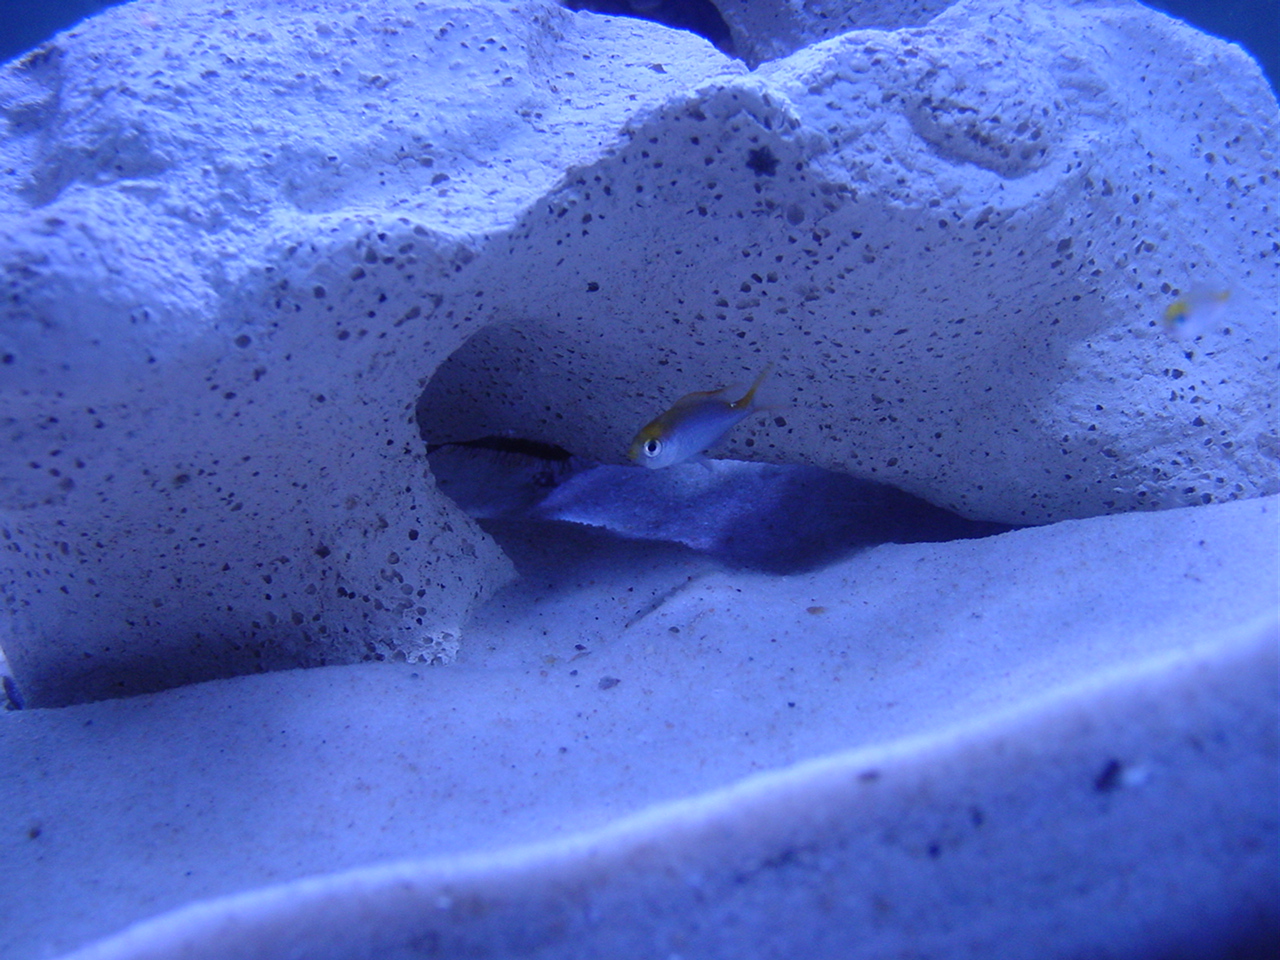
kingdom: Animalia
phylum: Chordata
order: Perciformes
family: Pomacentridae
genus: Chromis
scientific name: Chromis dasygenys
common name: Blue-spotted chromis
